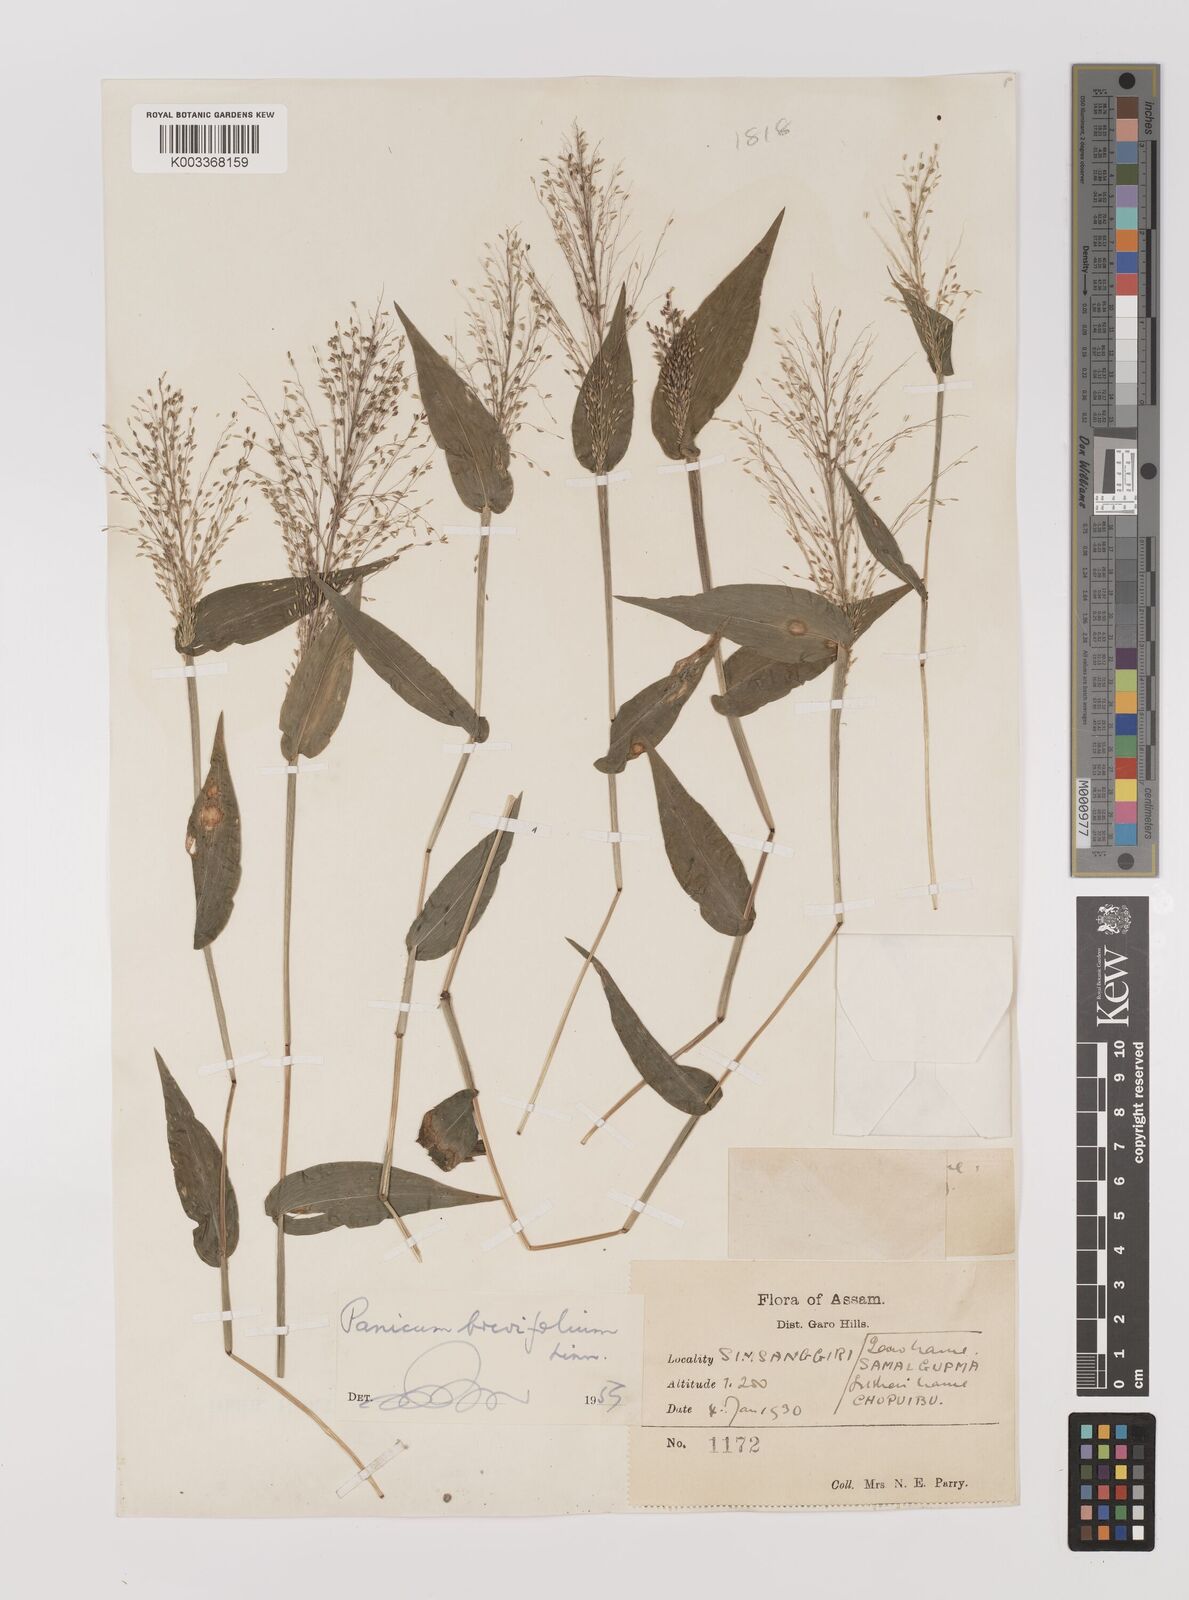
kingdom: Plantae
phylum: Tracheophyta
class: Liliopsida
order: Poales
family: Poaceae
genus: Panicum
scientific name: Panicum brevifolium
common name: Shortleaf panic grass
